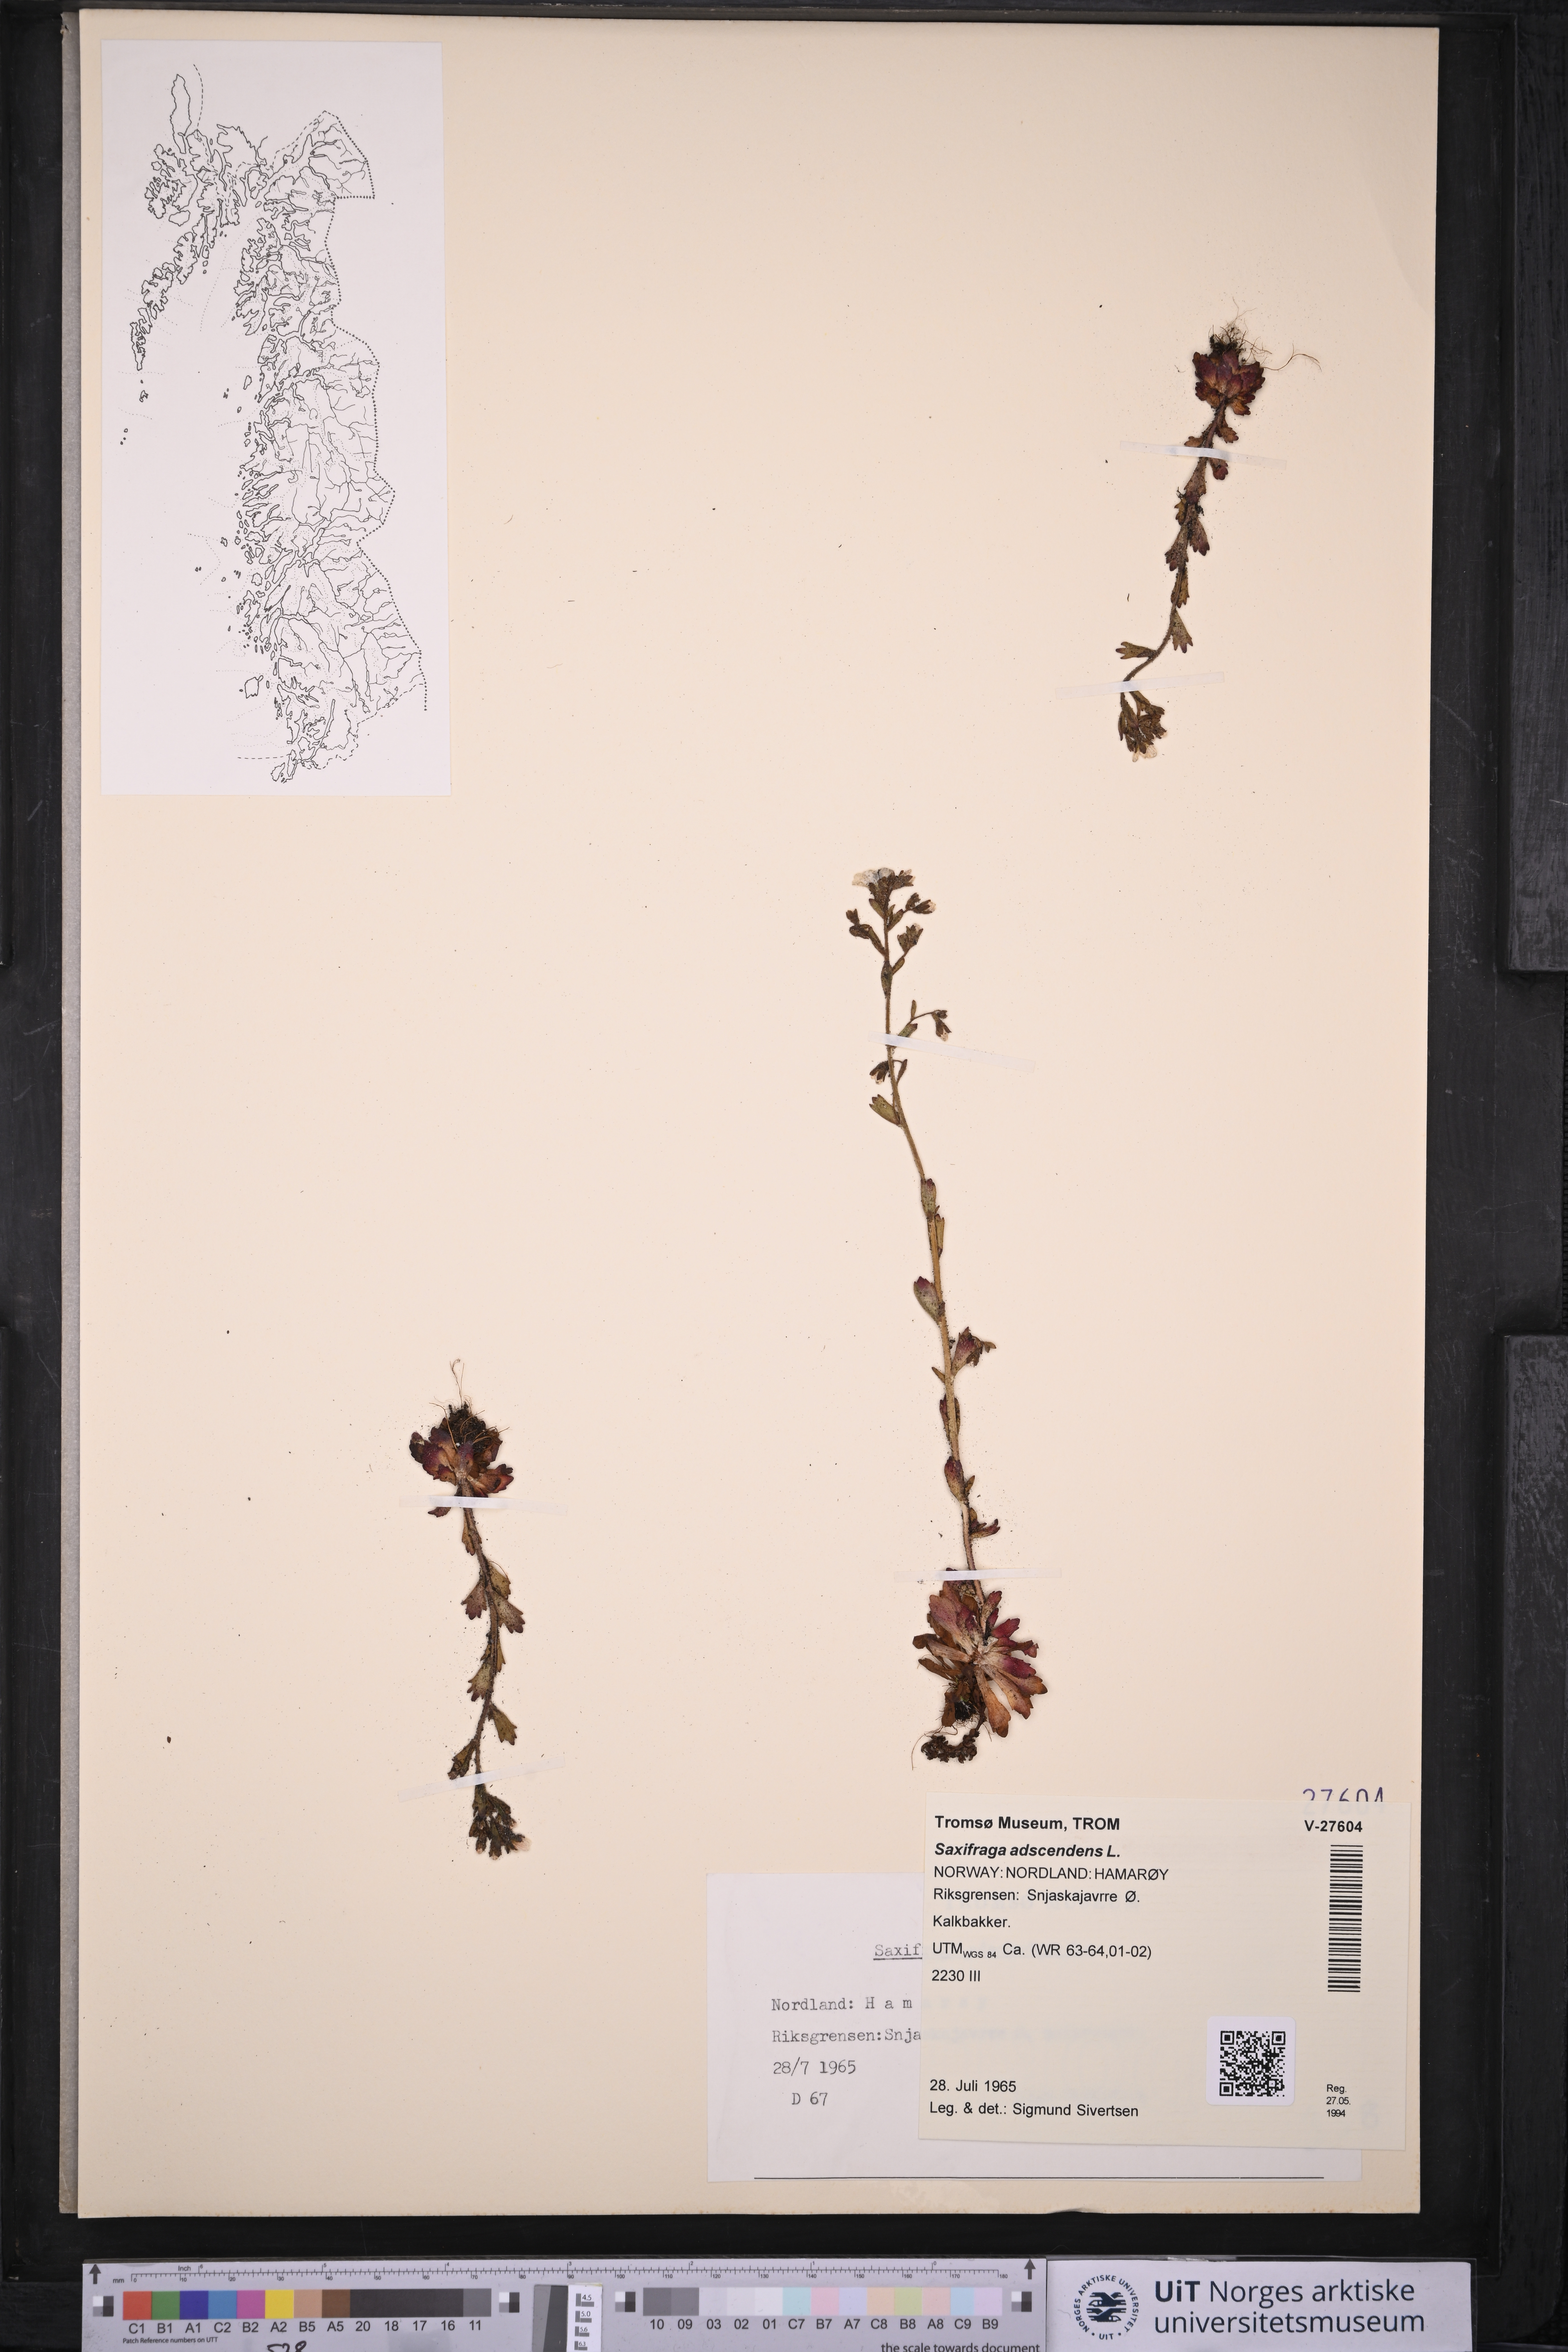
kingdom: Plantae
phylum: Tracheophyta
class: Magnoliopsida
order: Saxifragales
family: Saxifragaceae
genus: Saxifraga
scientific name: Saxifraga adscendens
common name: Ascending saxifrage
